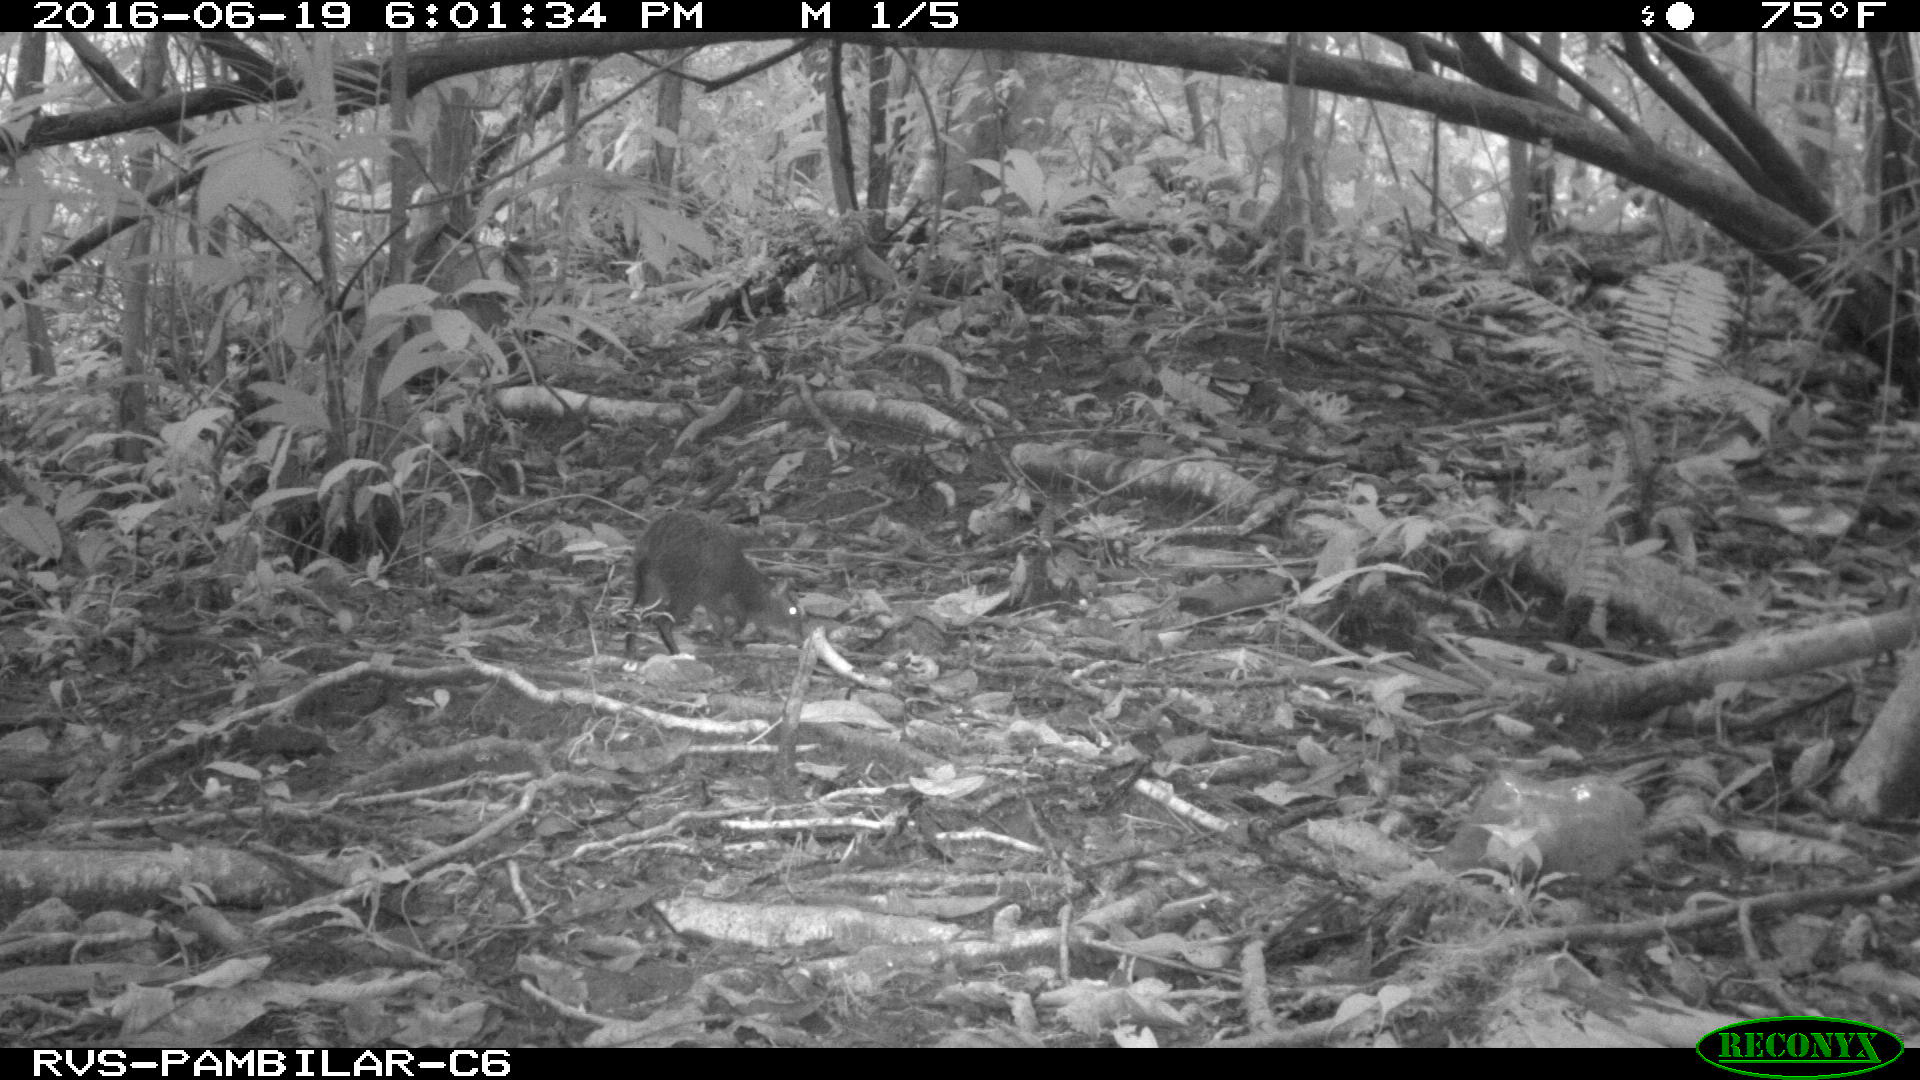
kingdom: Animalia
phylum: Chordata
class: Mammalia
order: Rodentia
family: Dasyproctidae
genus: Dasyprocta
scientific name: Dasyprocta punctata
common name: Central american agouti
